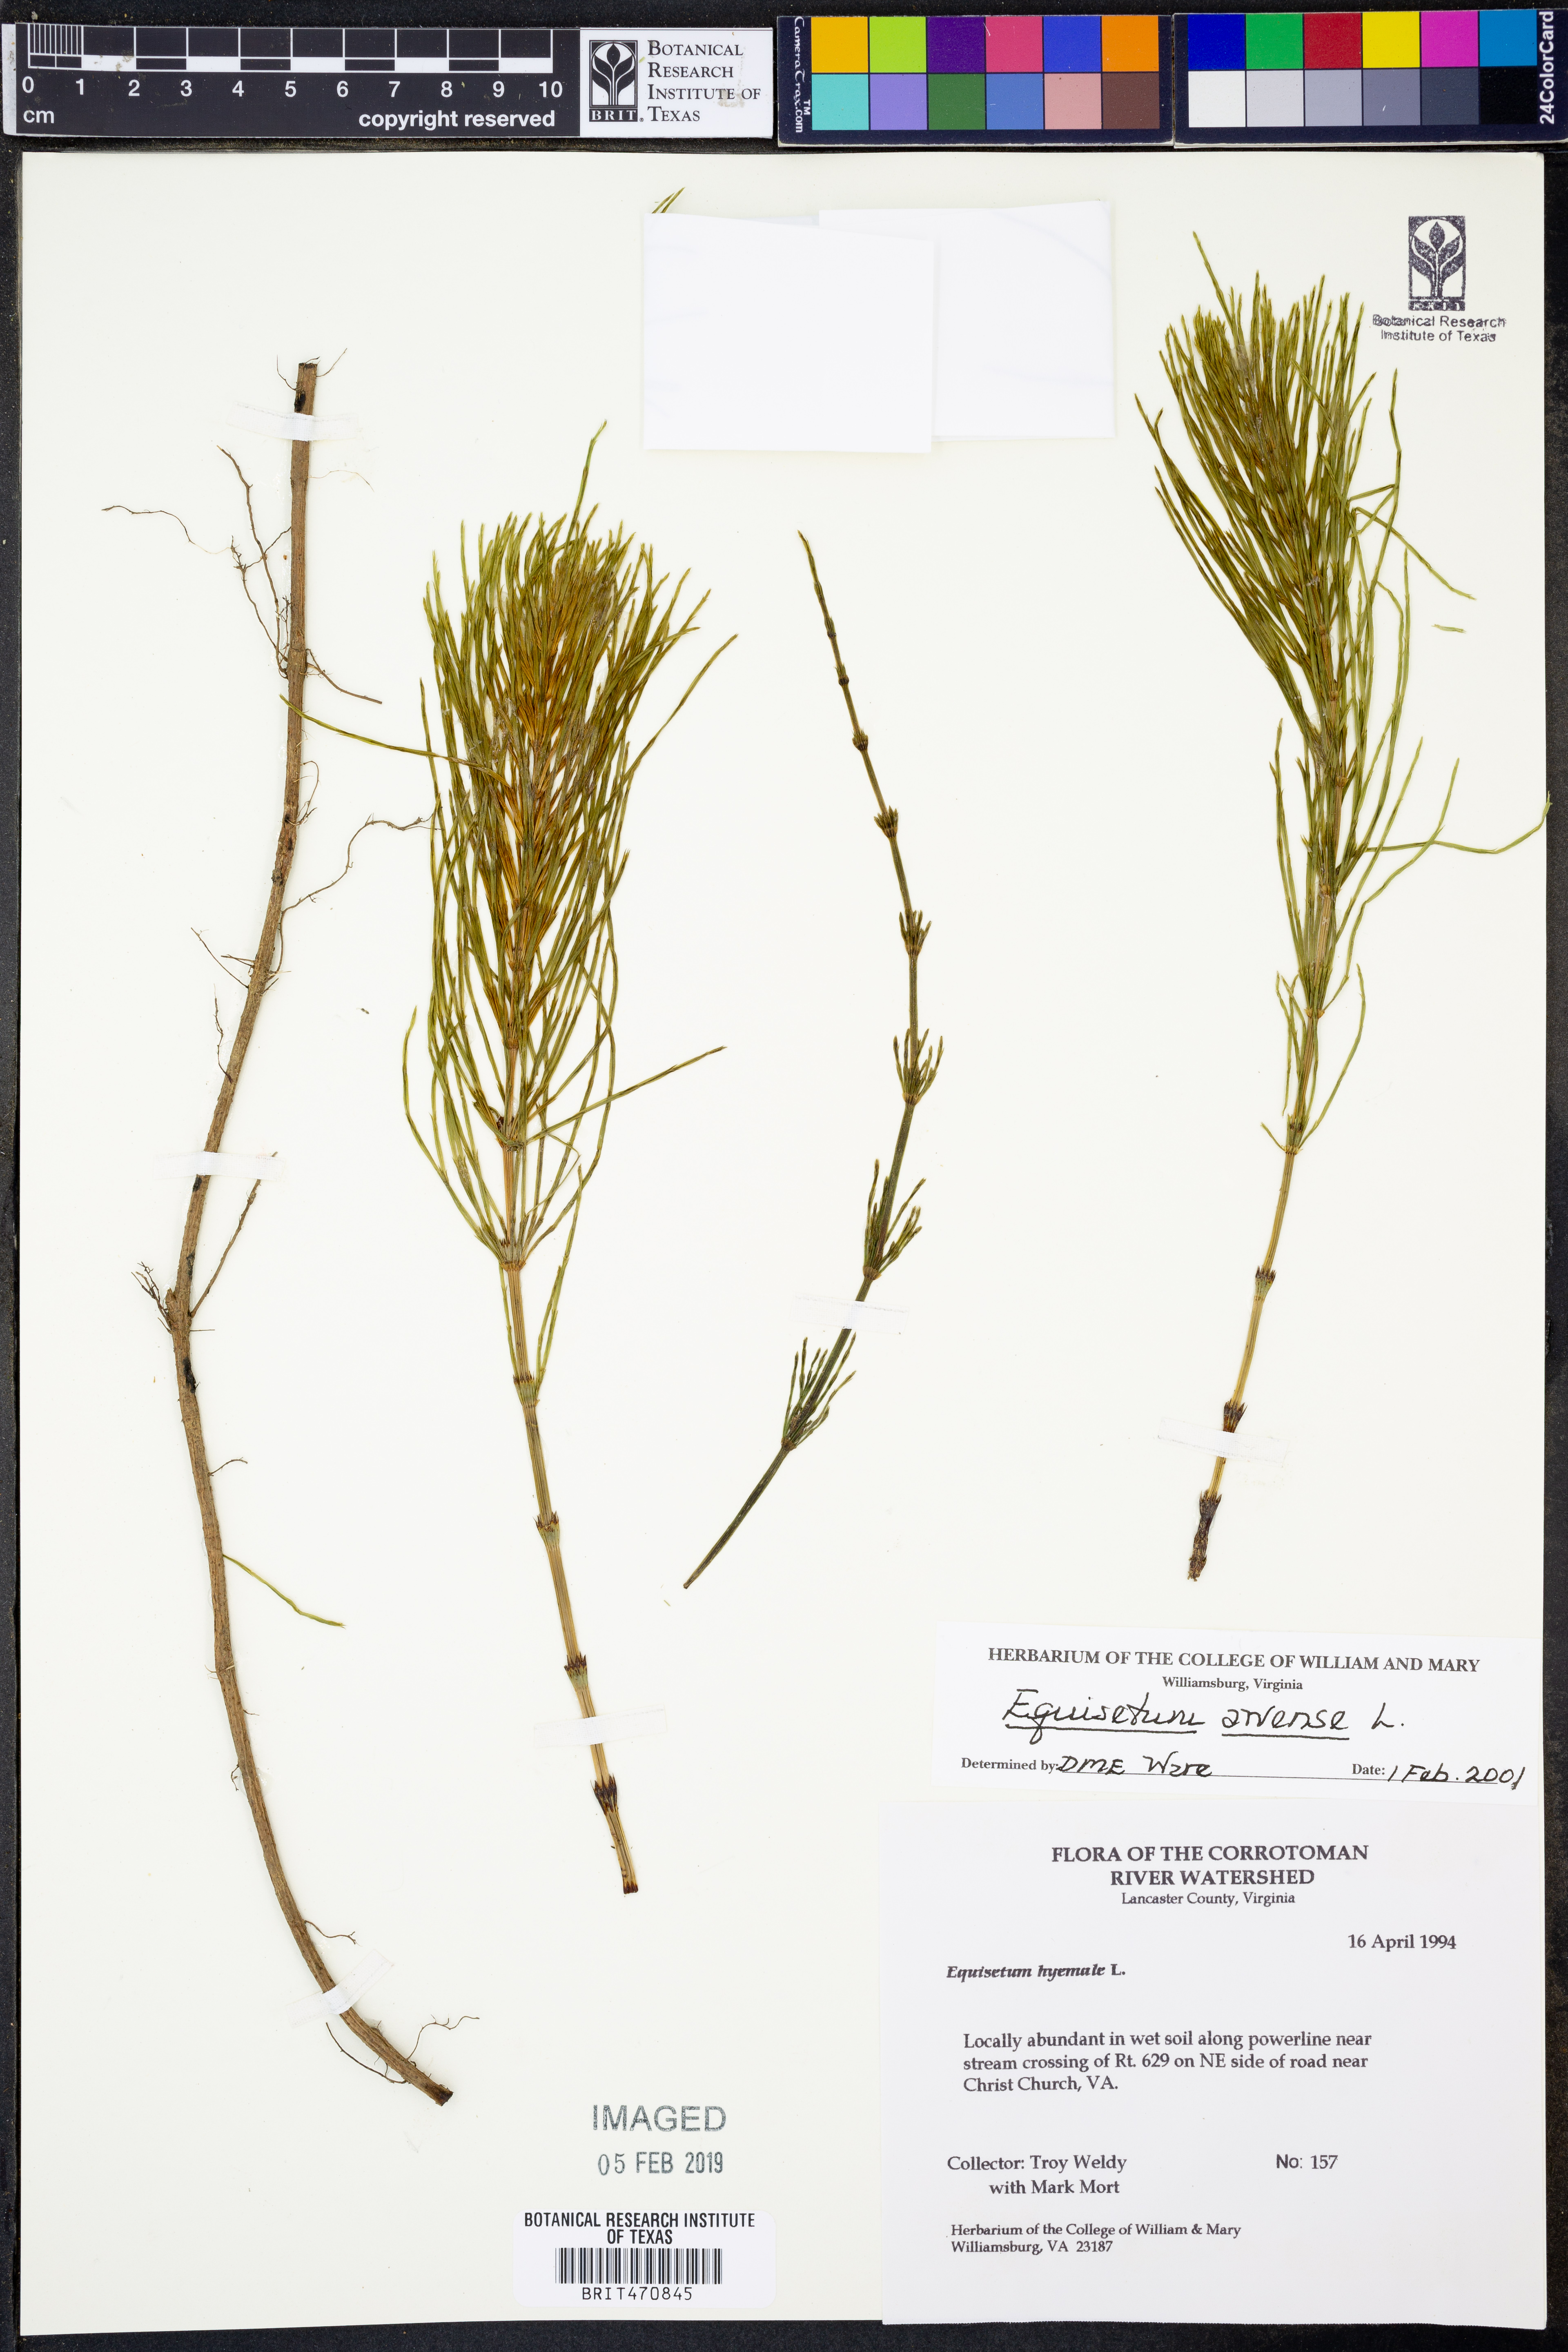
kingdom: Plantae
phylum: Tracheophyta
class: Polypodiopsida
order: Equisetales
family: Equisetaceae
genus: Equisetum
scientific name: Equisetum arvense
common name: Field horsetail
